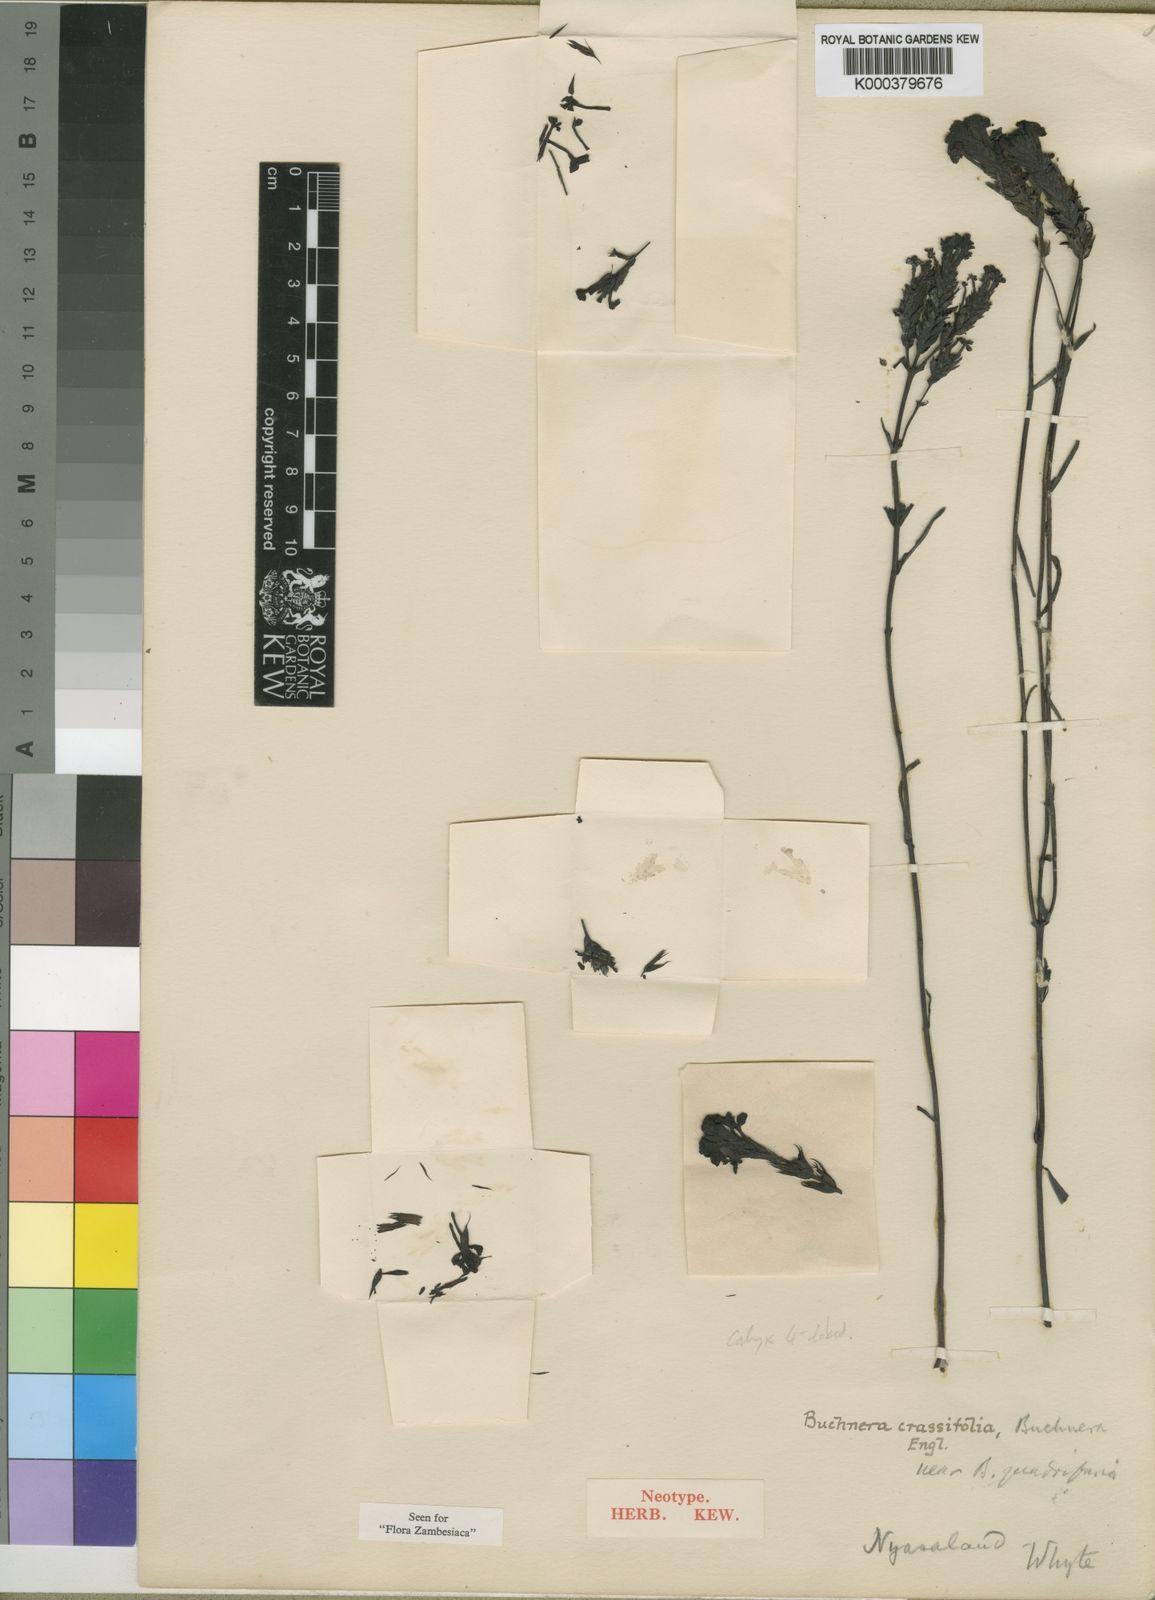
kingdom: Plantae
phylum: Tracheophyta
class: Magnoliopsida
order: Lamiales
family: Orobanchaceae
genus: Buchnera
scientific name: Buchnera rungwensis
